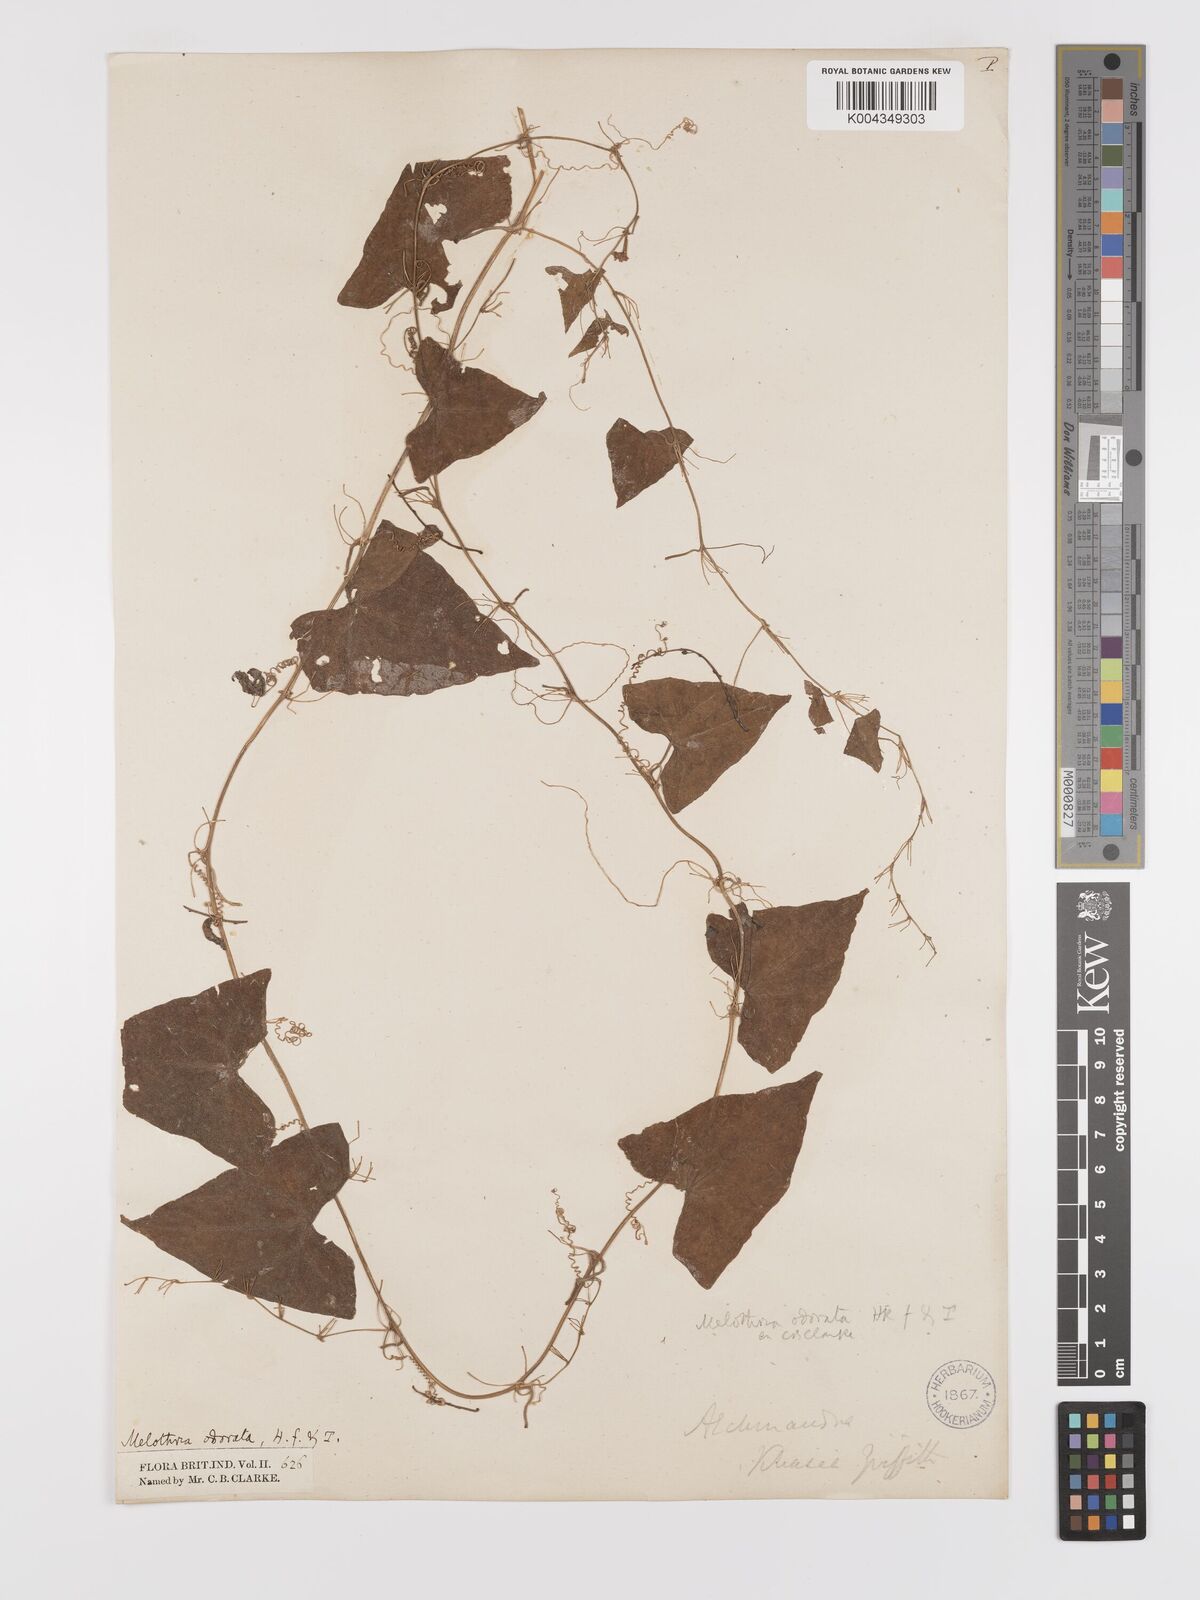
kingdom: Plantae
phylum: Tracheophyta
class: Magnoliopsida
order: Cucurbitales
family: Cucurbitaceae
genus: Zehneria
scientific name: Zehneria odorata
